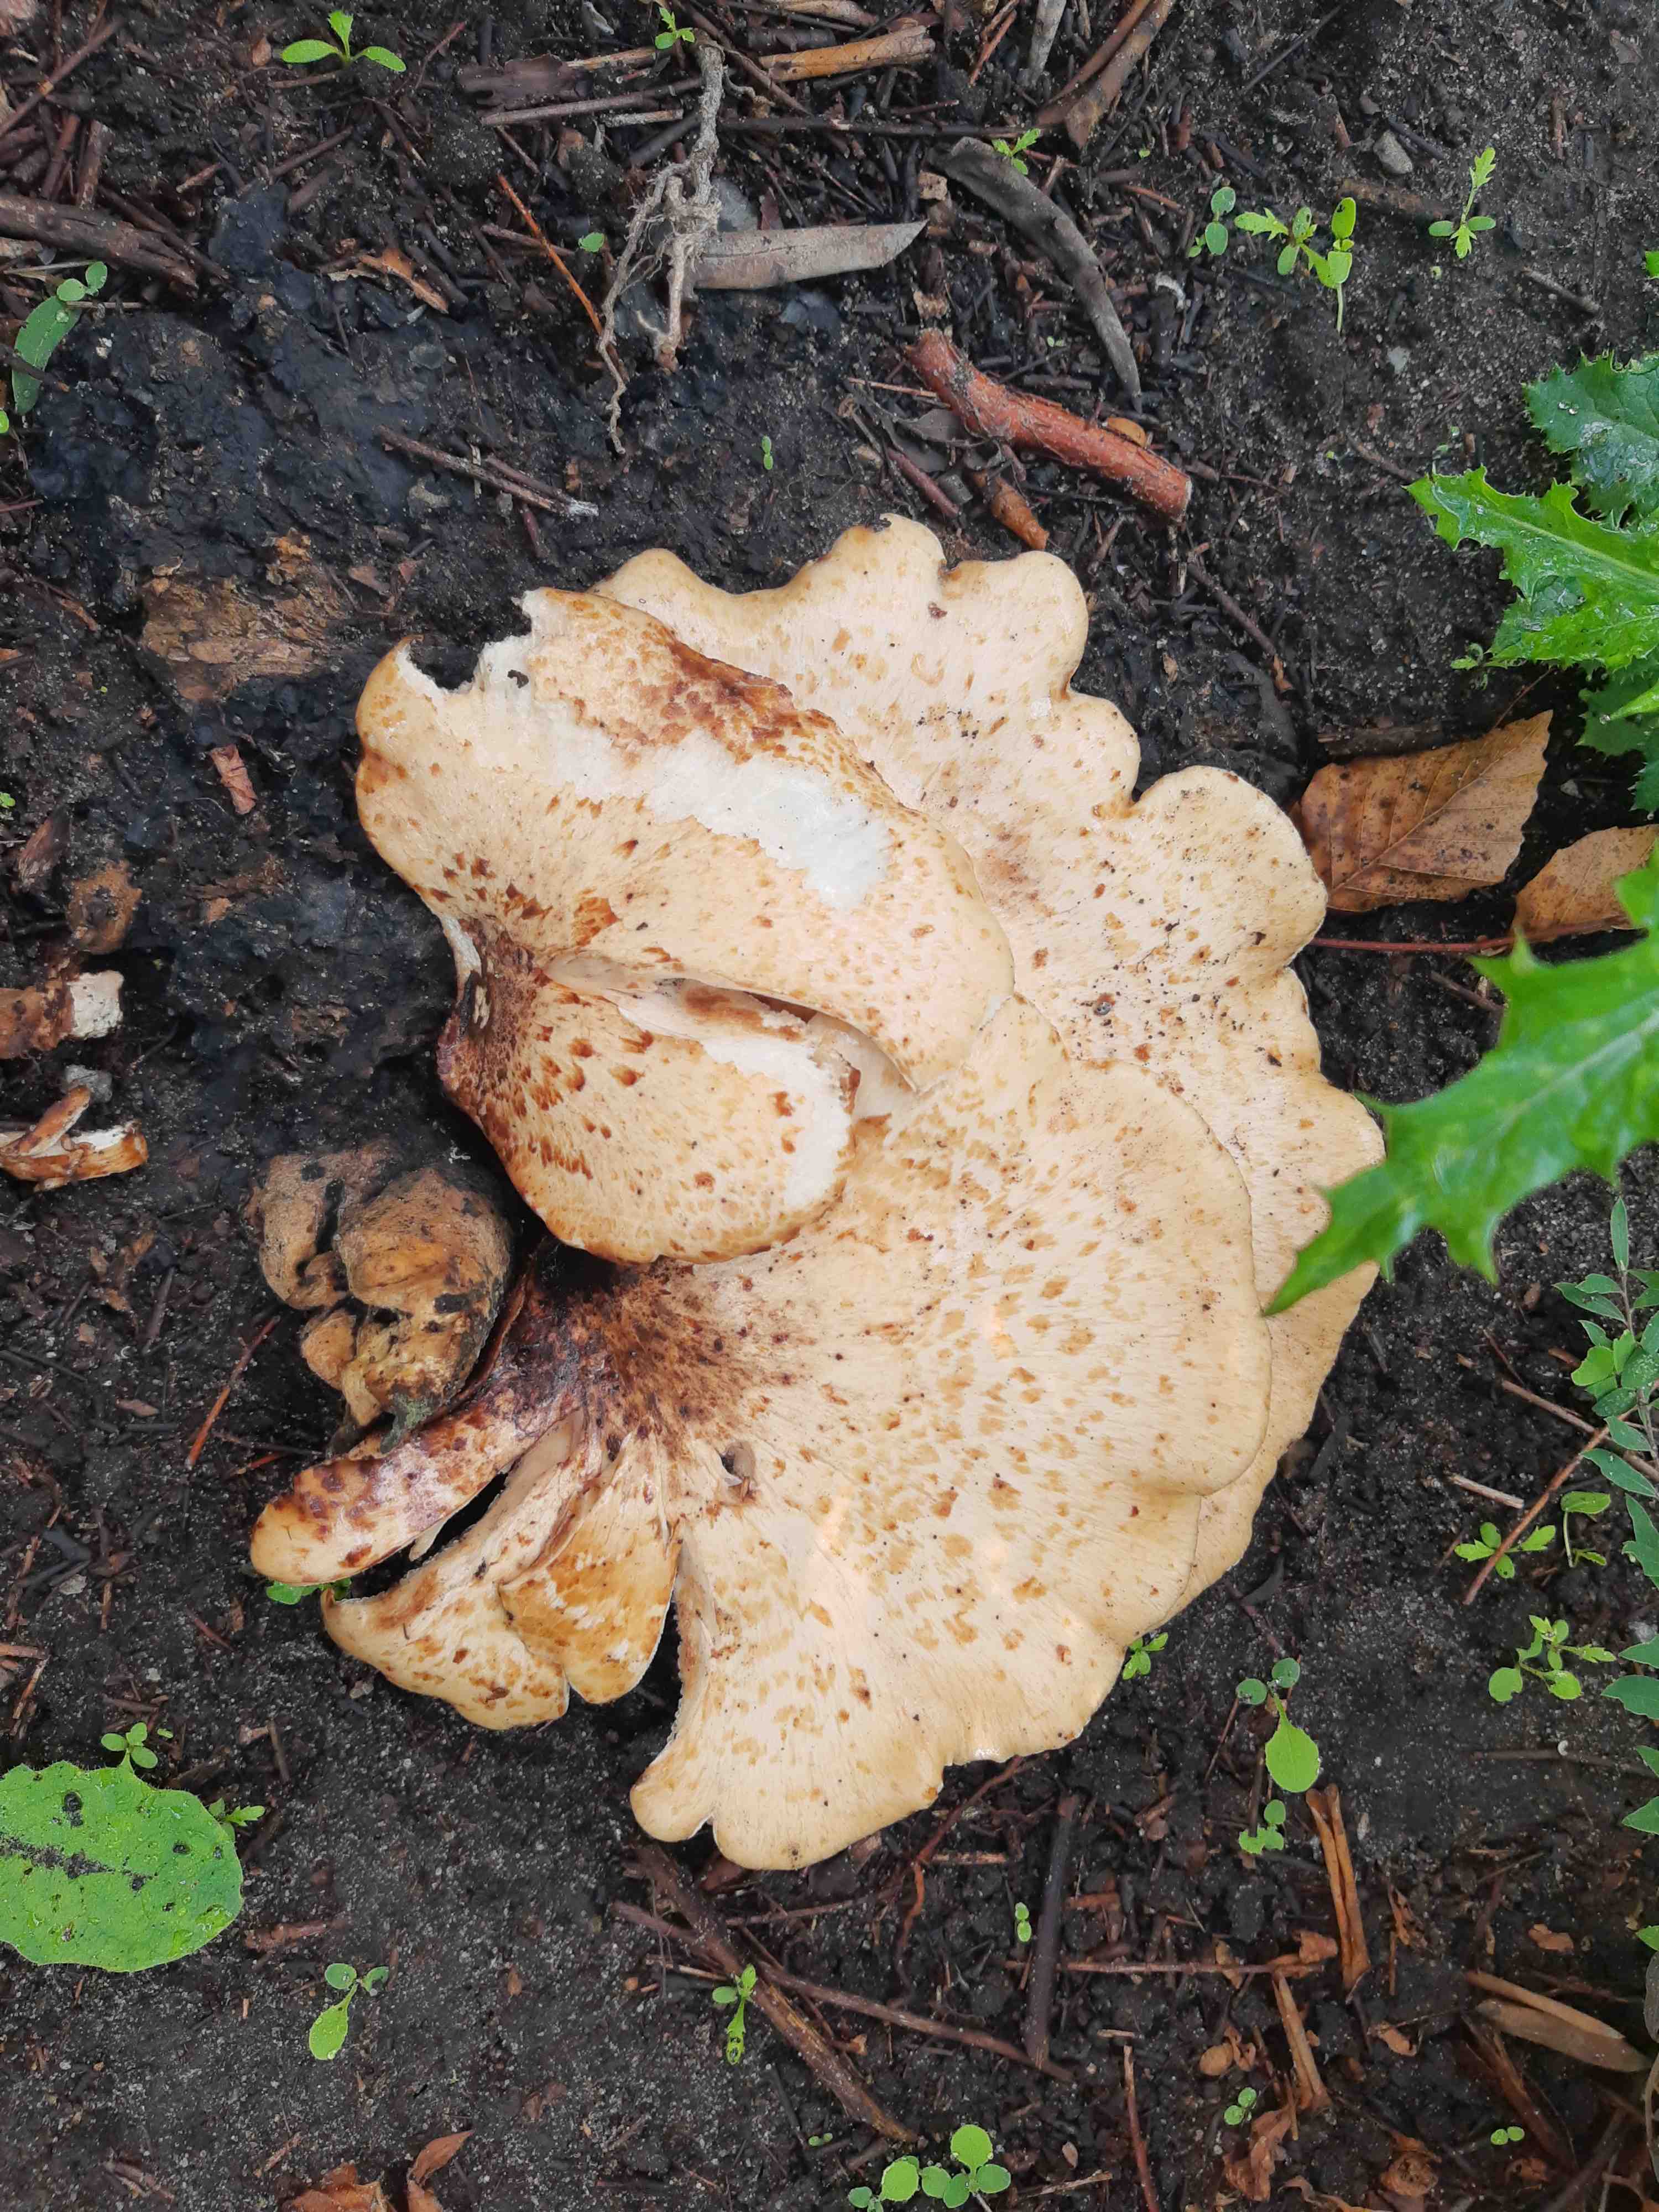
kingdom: Fungi
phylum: Basidiomycota
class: Agaricomycetes
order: Polyporales
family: Polyporaceae
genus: Cerioporus
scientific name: Cerioporus squamosus
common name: skællet stilkporesvamp
